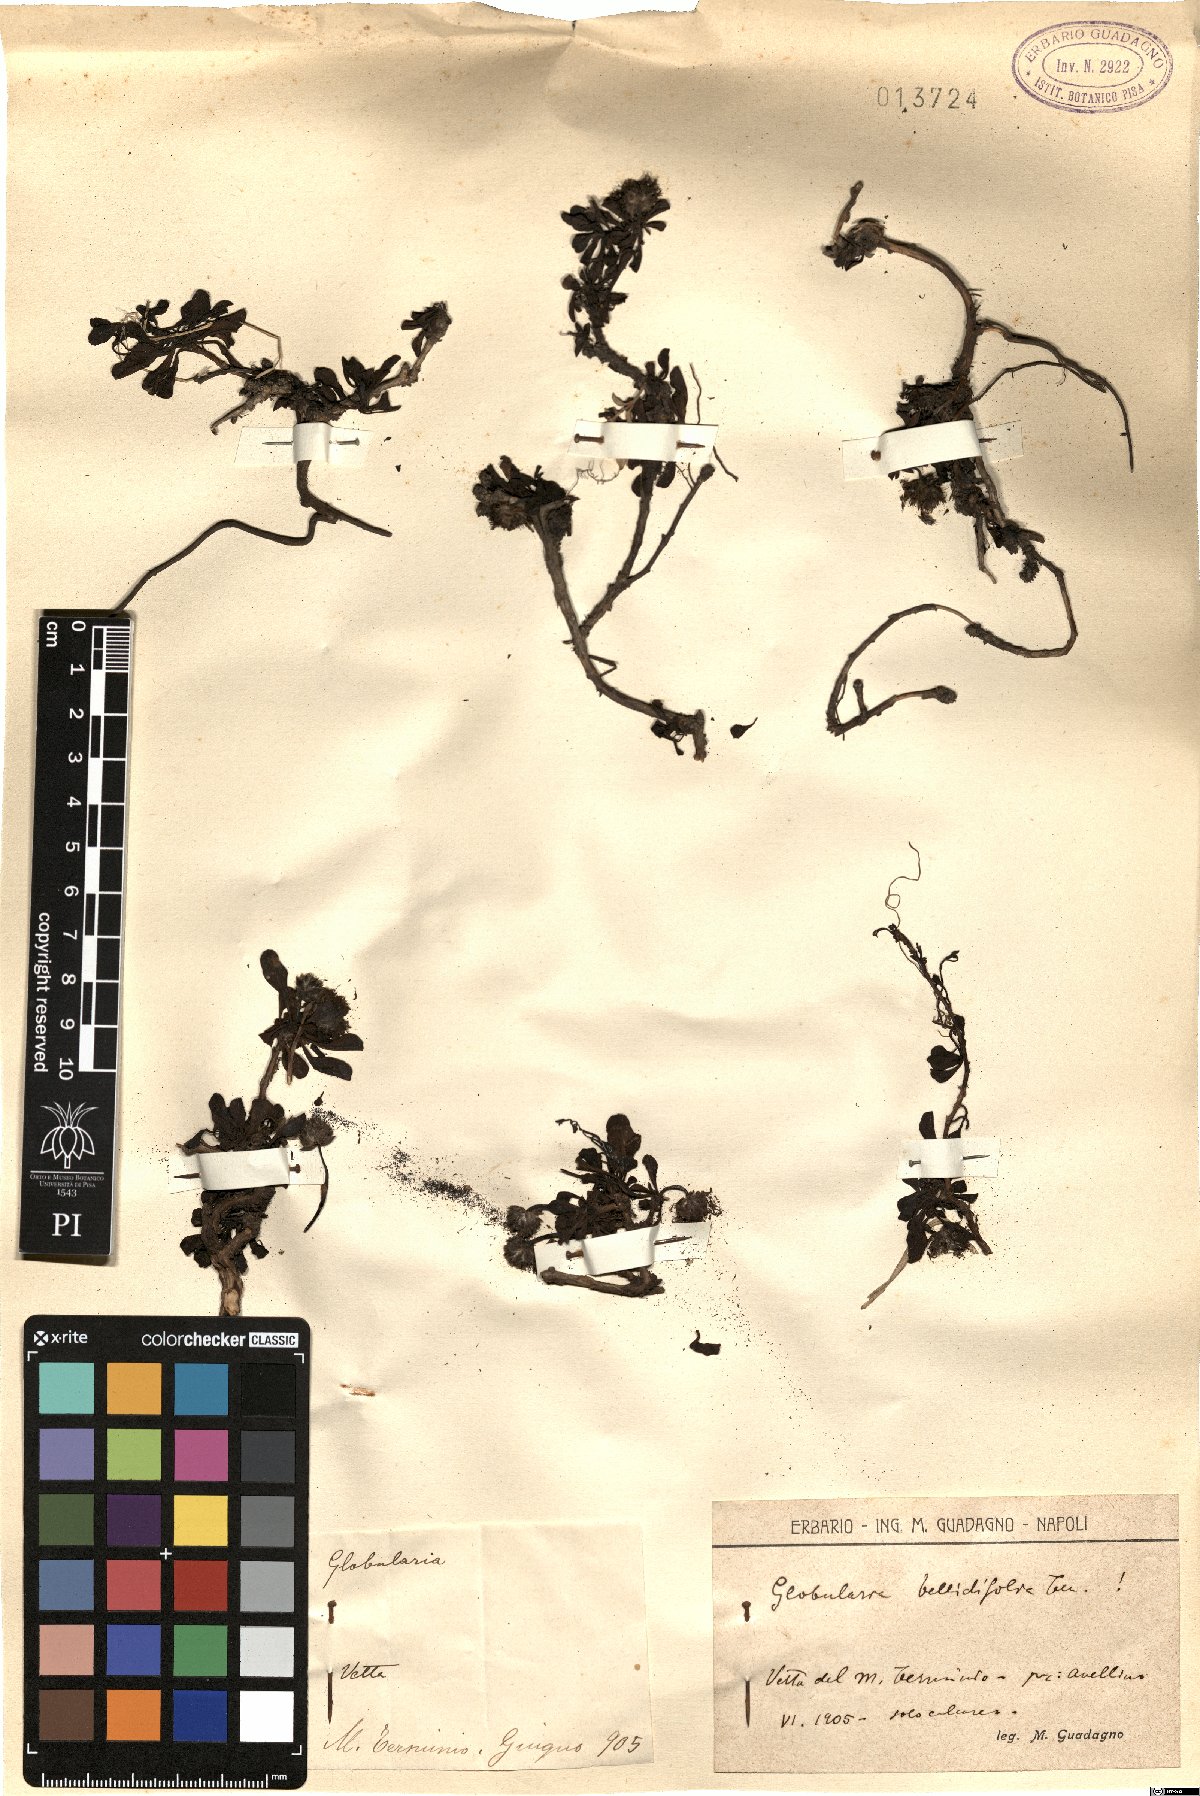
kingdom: Plantae
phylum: Tracheophyta
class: Magnoliopsida
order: Lamiales
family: Plantaginaceae
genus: Globularia
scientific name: Globularia meridionalis
